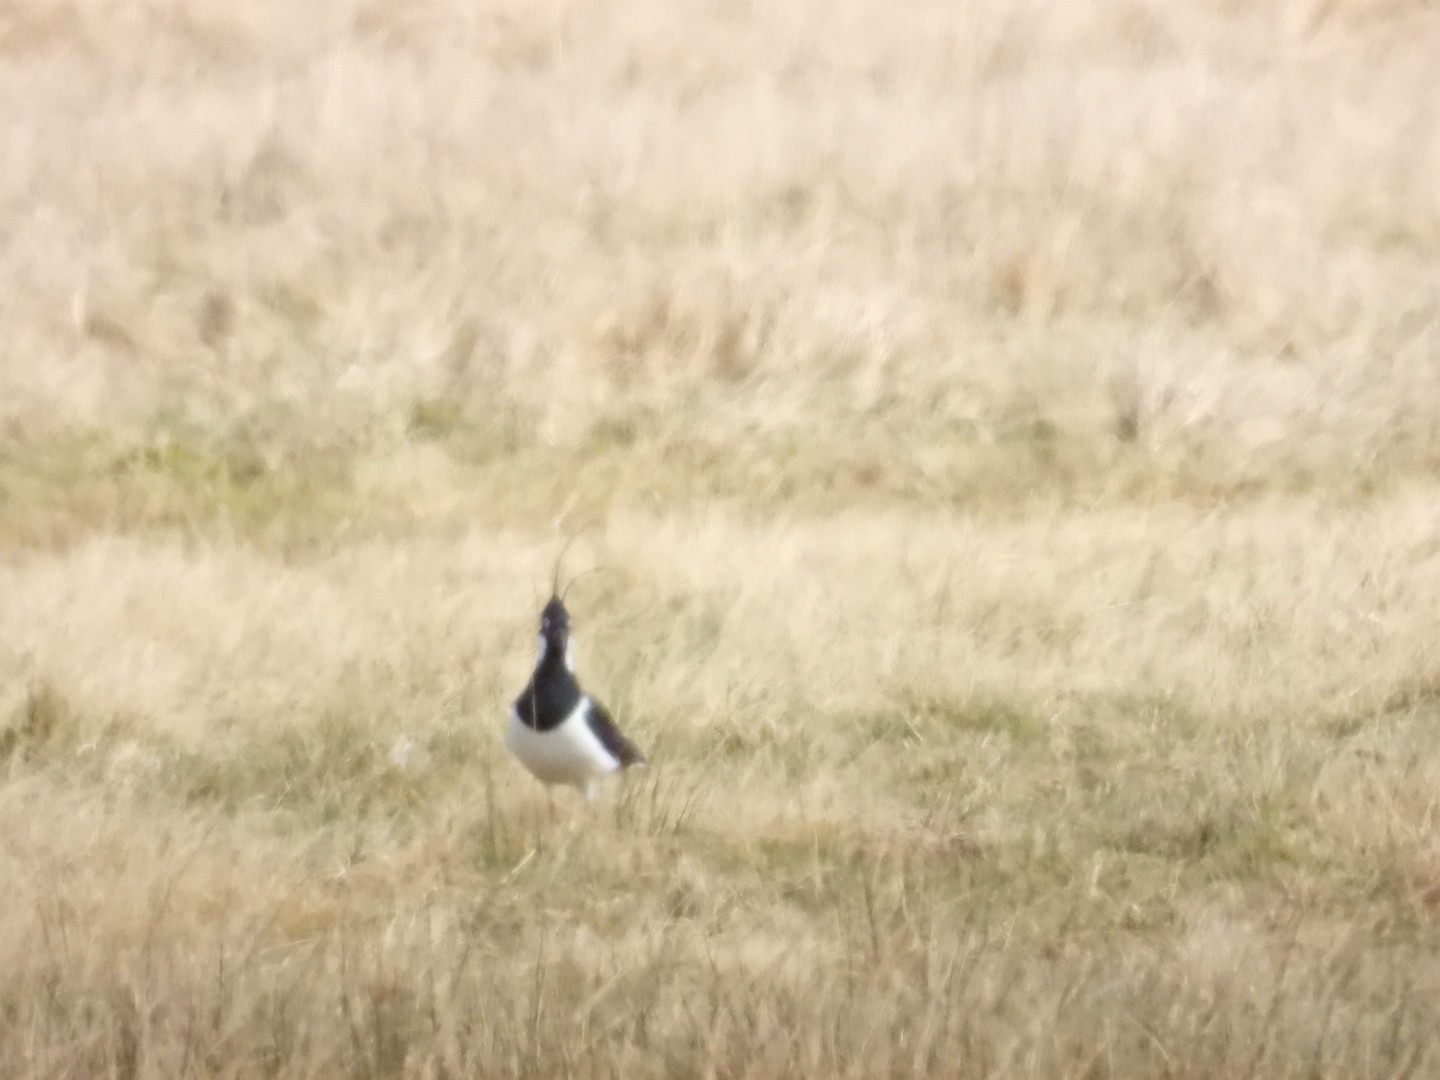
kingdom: Animalia
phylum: Chordata
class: Aves
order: Charadriiformes
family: Charadriidae
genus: Vanellus
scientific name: Vanellus vanellus
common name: Vibe
